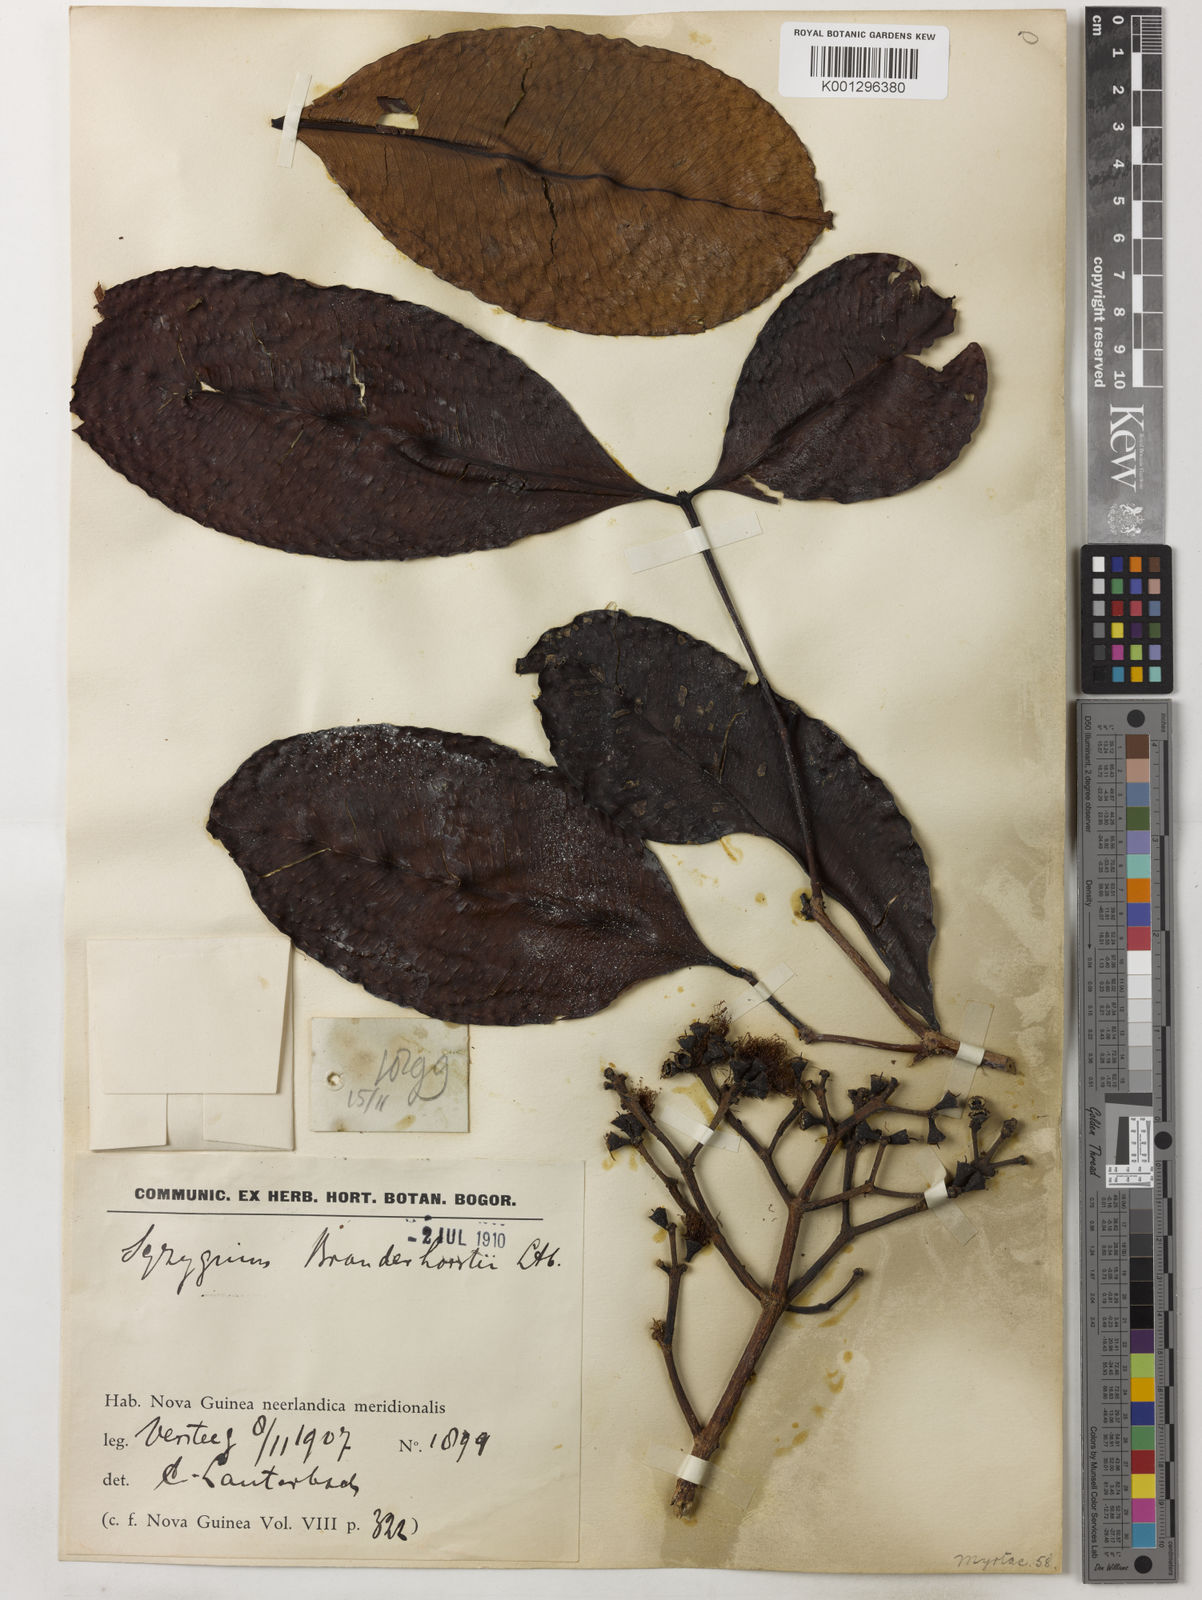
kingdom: Plantae
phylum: Tracheophyta
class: Magnoliopsida
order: Myrtales
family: Myrtaceae
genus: Syzygium
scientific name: Syzygium branderhorstii
